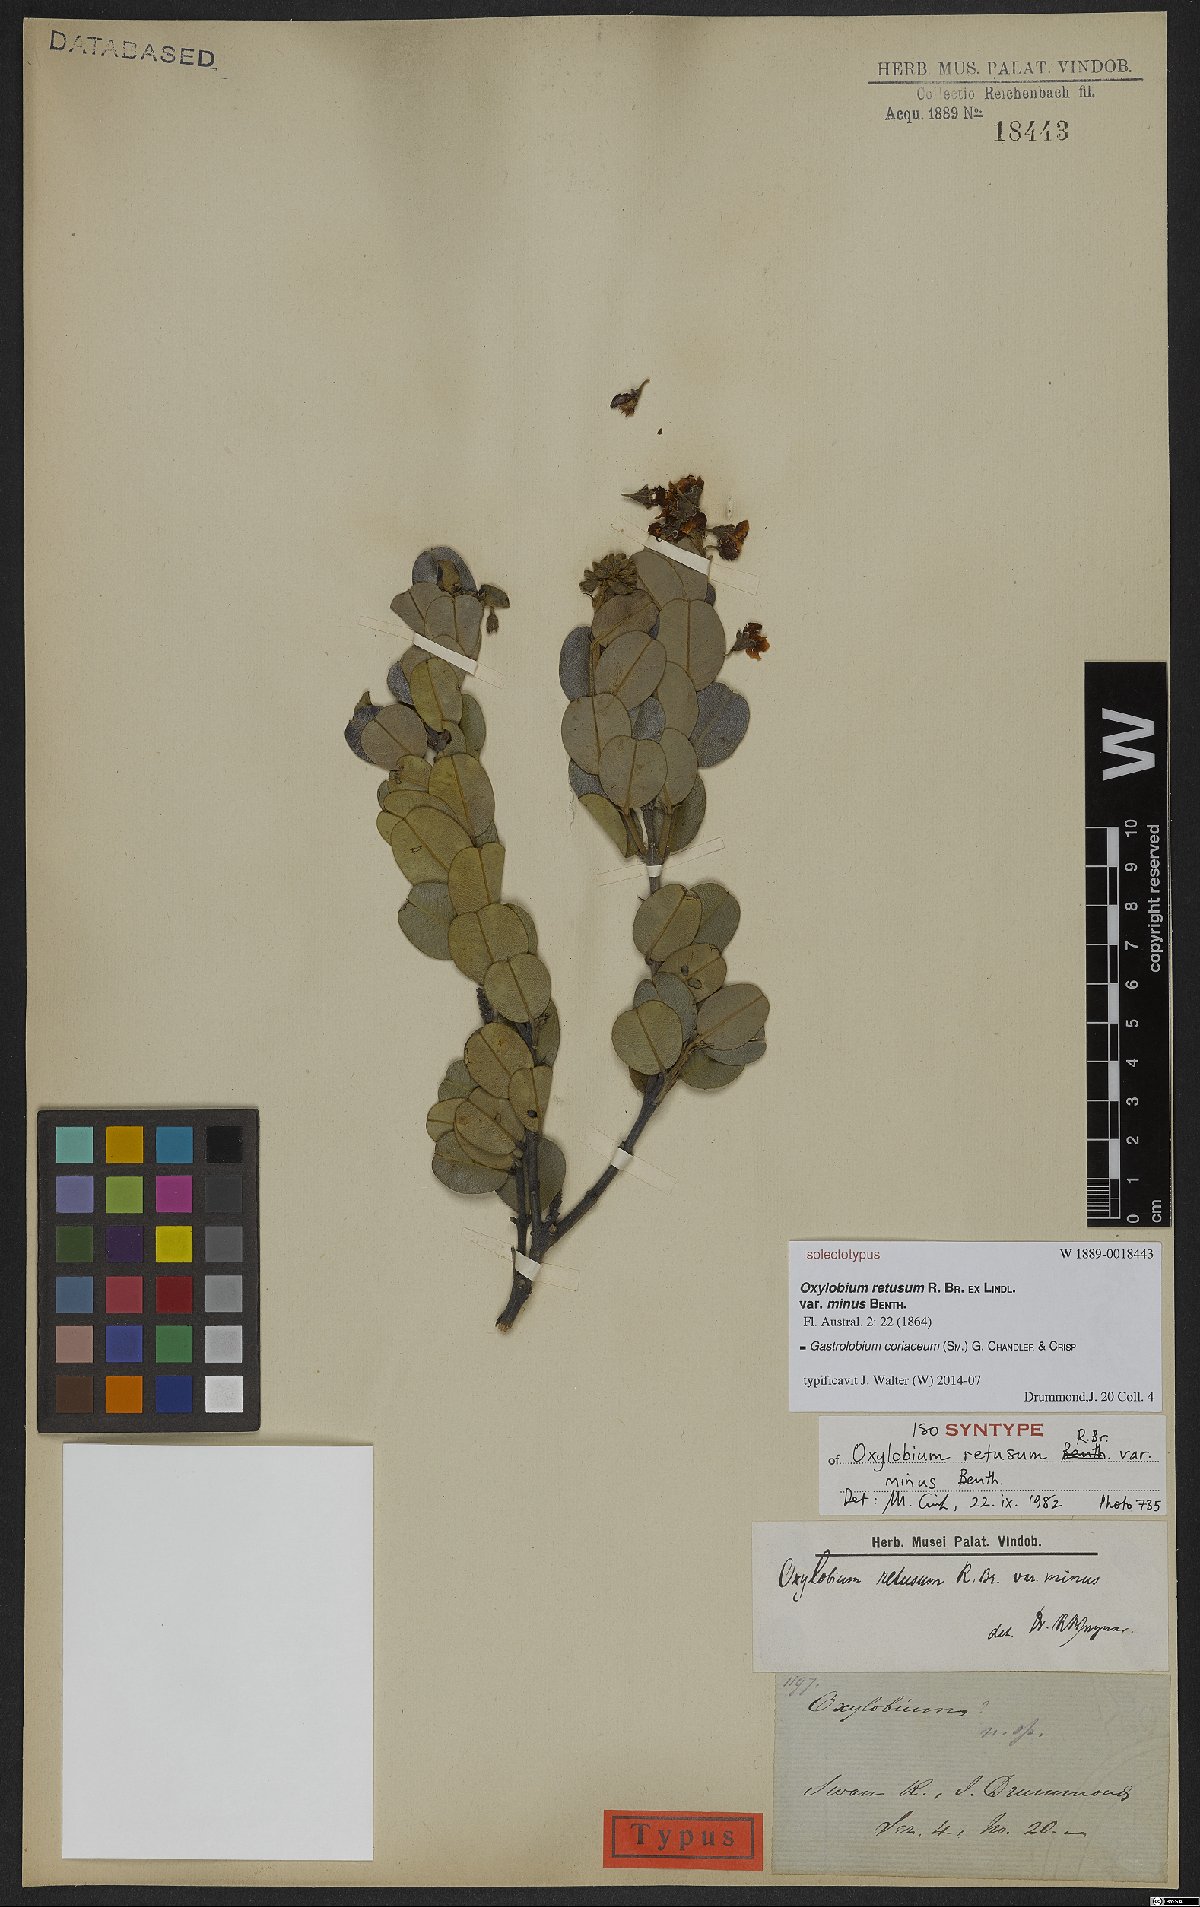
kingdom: Plantae
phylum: Tracheophyta
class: Magnoliopsida
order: Fabales
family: Fabaceae
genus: Gastrolobium
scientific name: Gastrolobium coriaceum
